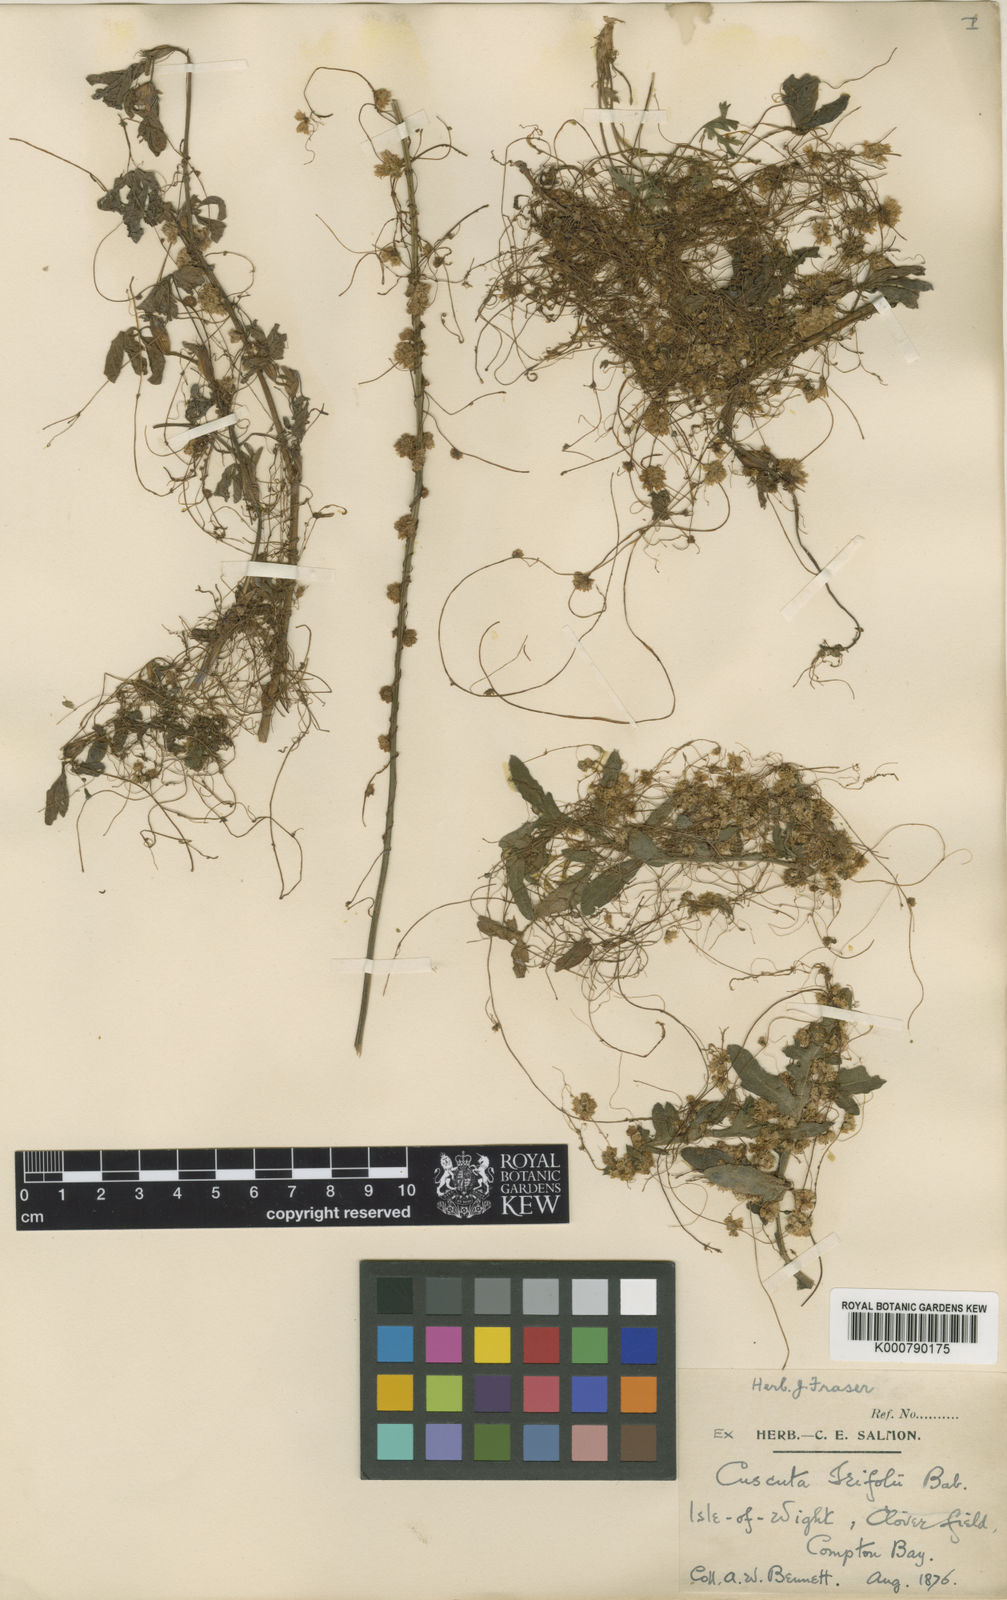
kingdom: Plantae
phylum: Tracheophyta
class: Magnoliopsida
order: Solanales
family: Convolvulaceae
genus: Cuscuta
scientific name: Cuscuta epithymum
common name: Clover dodder
